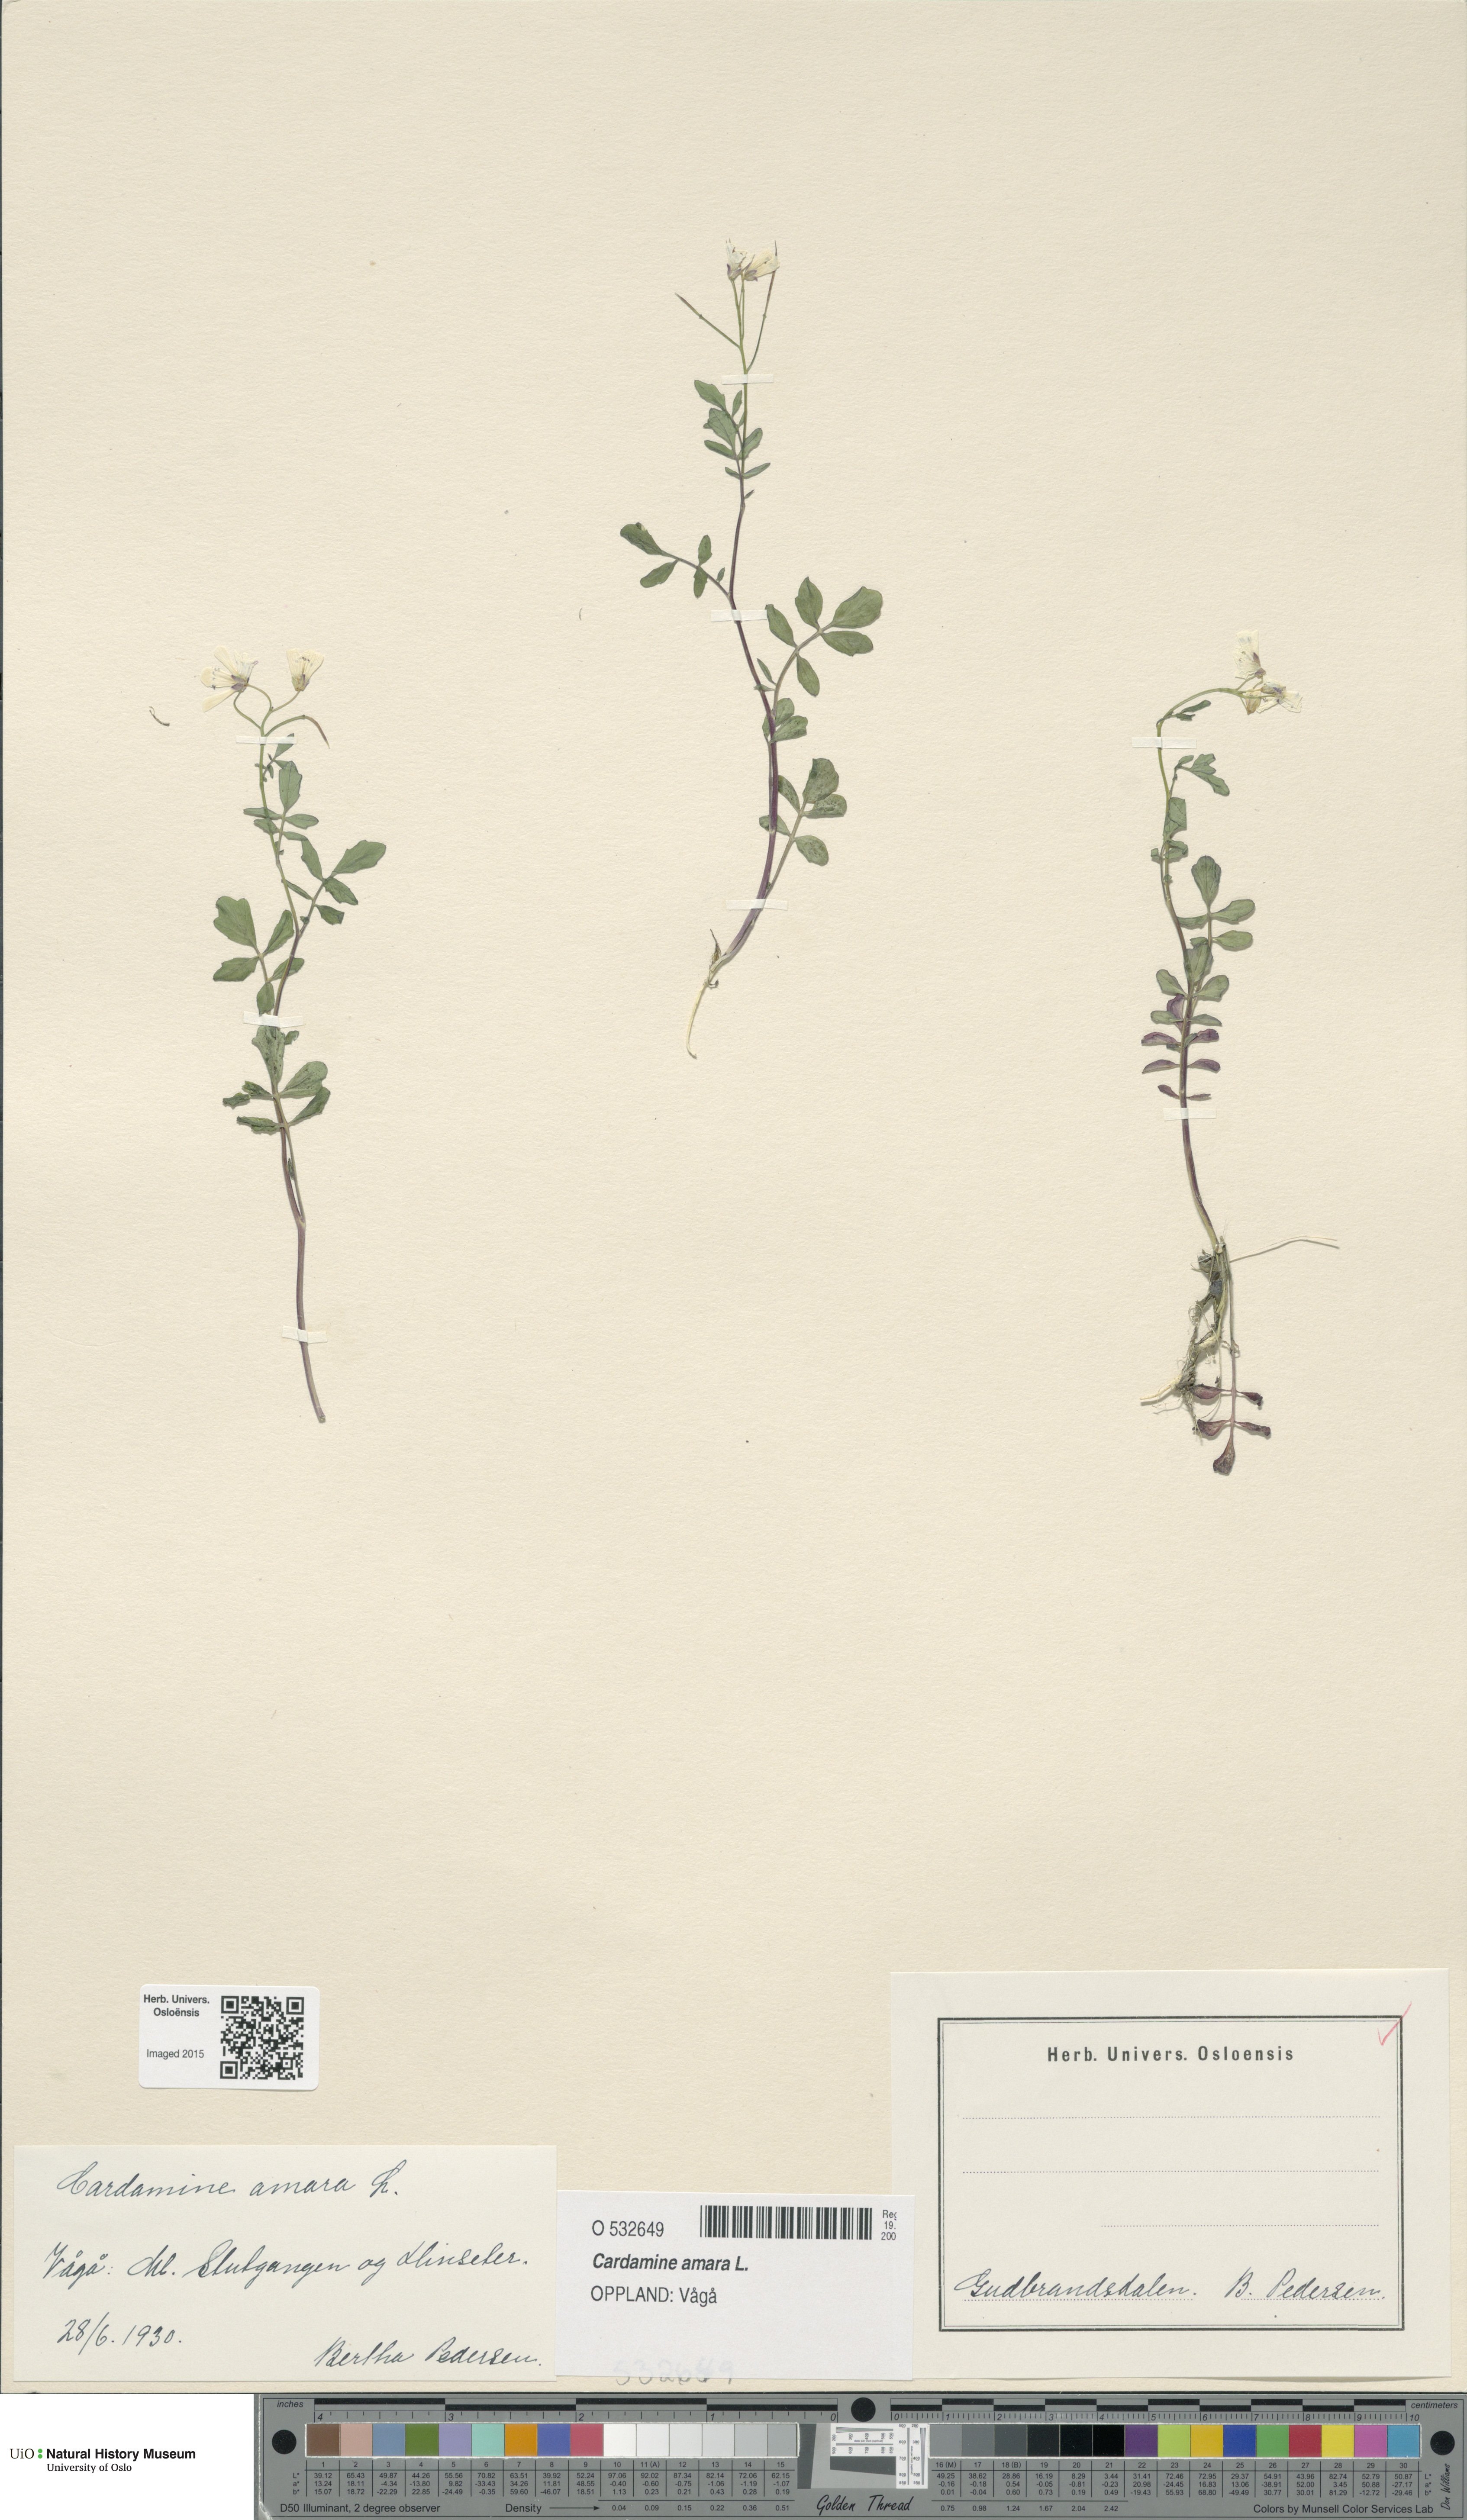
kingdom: Plantae
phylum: Tracheophyta
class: Magnoliopsida
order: Brassicales
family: Brassicaceae
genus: Cardamine
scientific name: Cardamine amara
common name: Large bitter-cress
